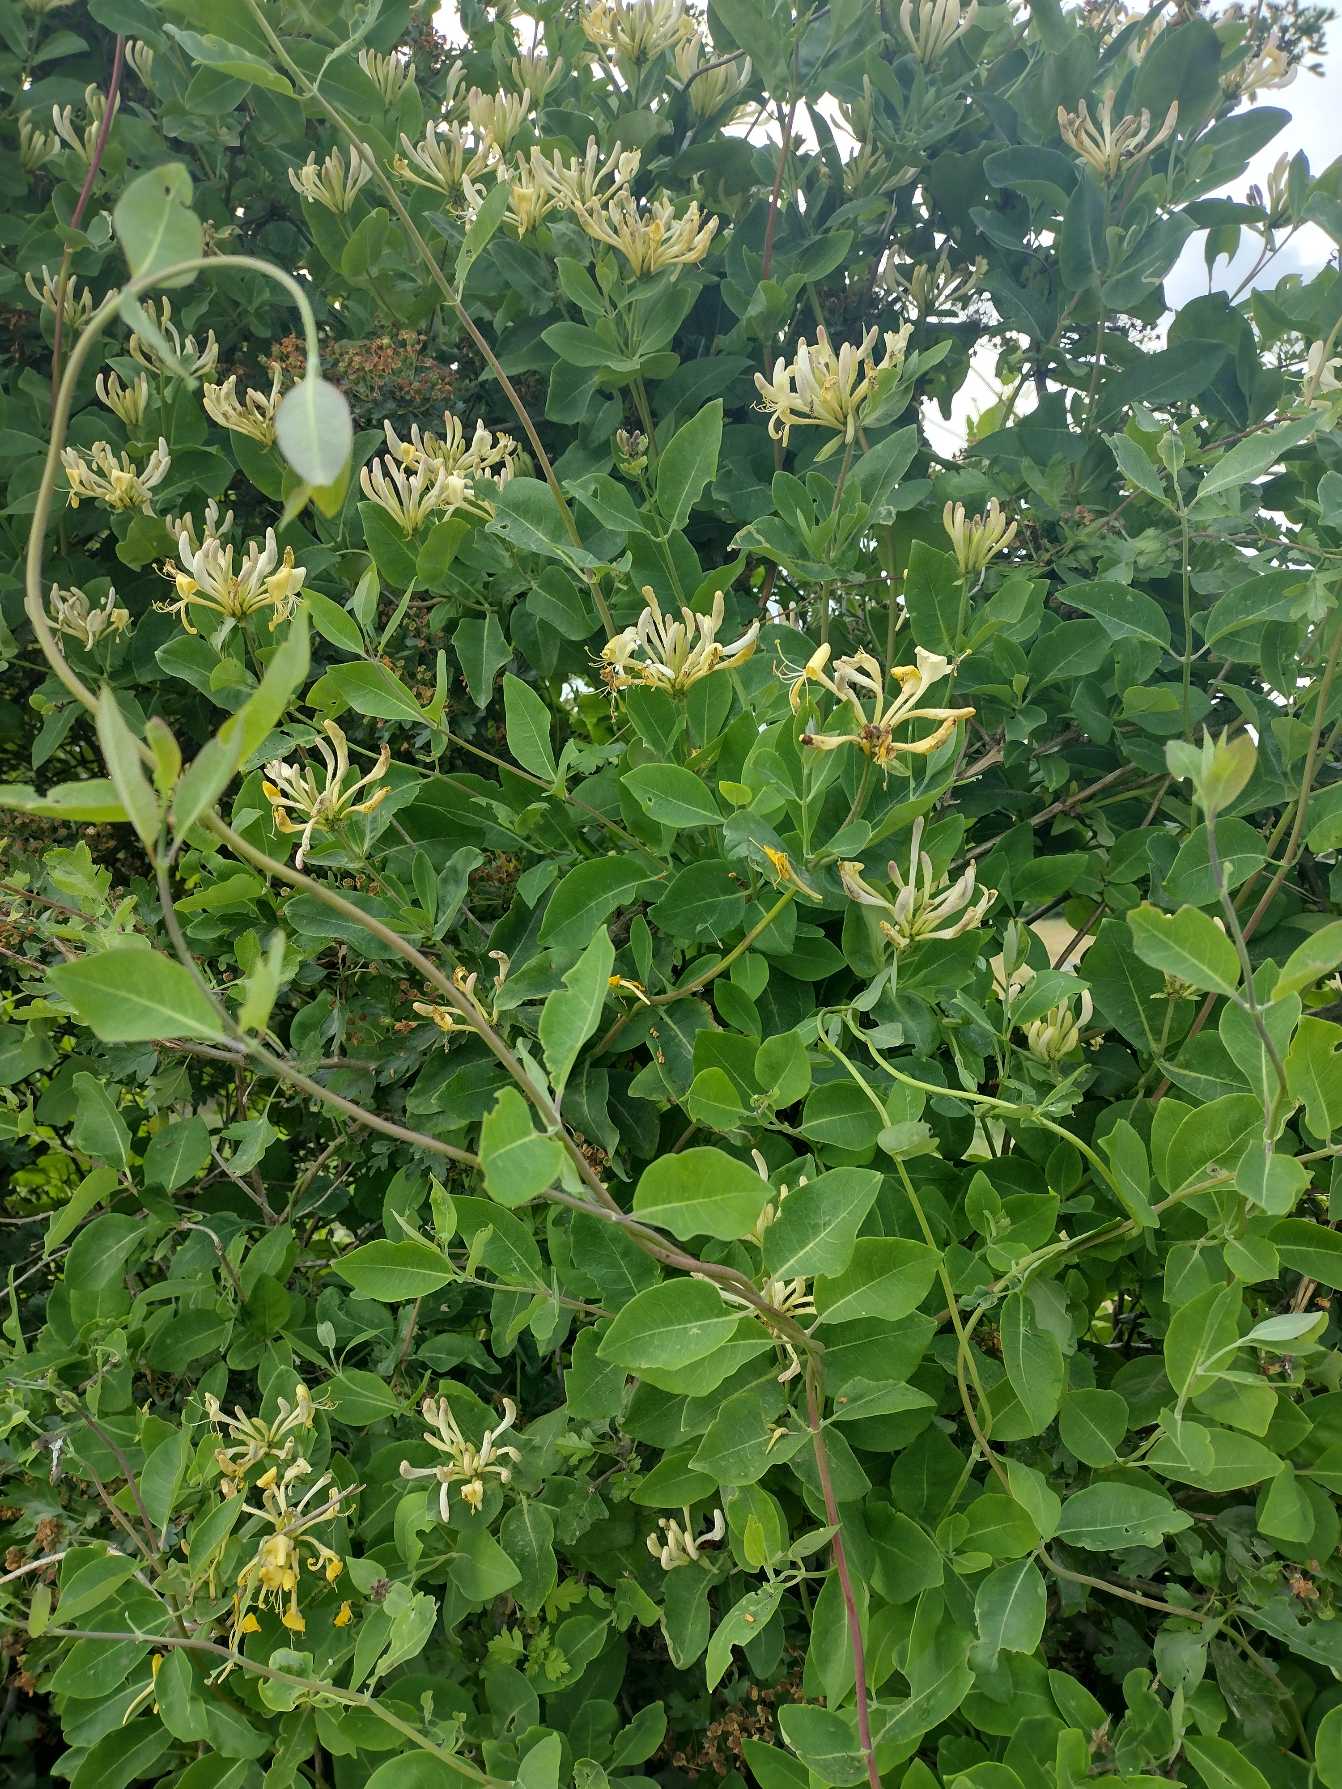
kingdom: Plantae
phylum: Tracheophyta
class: Magnoliopsida
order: Dipsacales
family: Caprifoliaceae
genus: Lonicera
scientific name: Lonicera periclymenum
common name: Almindelig gedeblad
